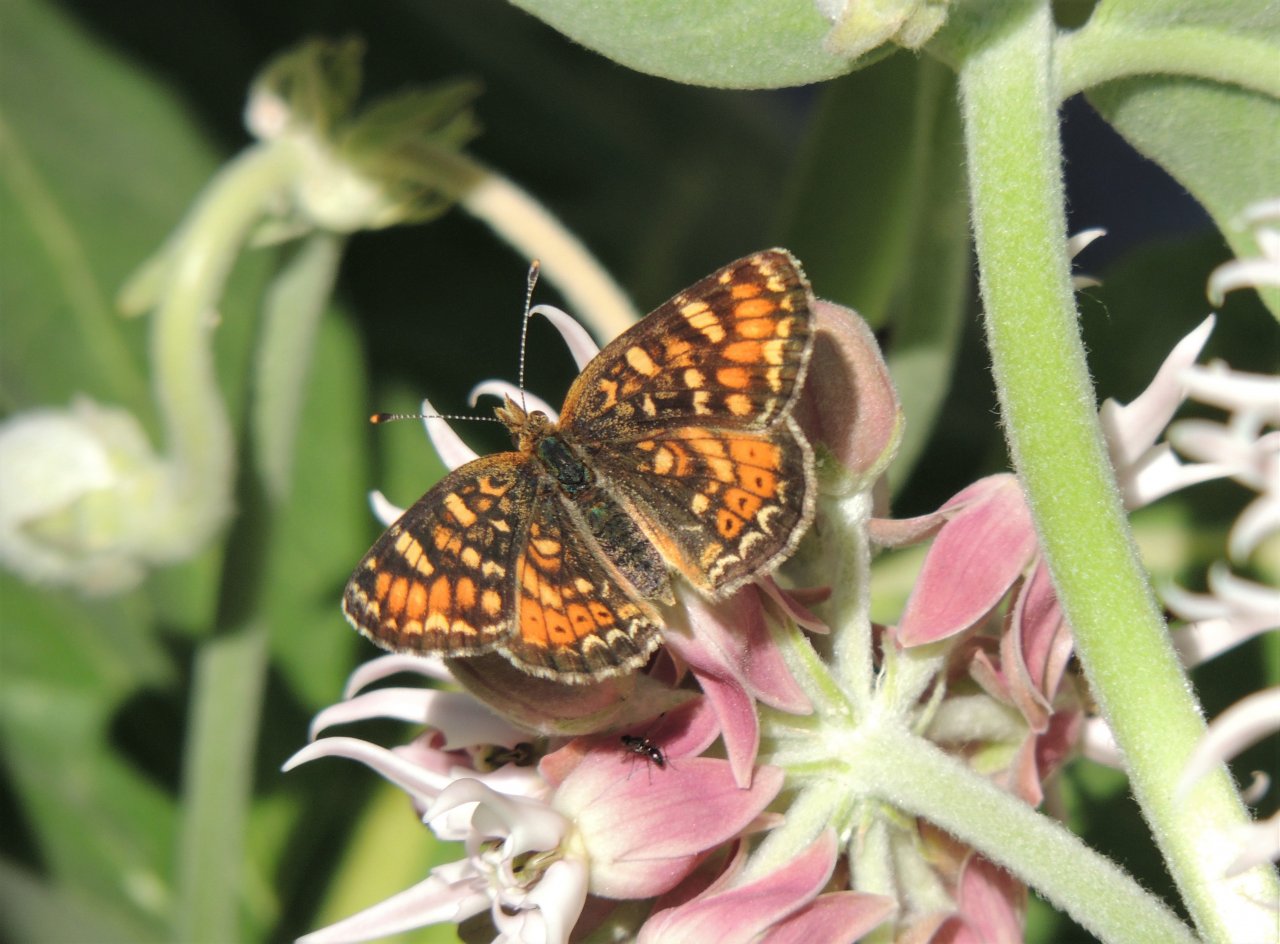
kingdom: Animalia
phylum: Arthropoda
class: Insecta
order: Lepidoptera
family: Nymphalidae
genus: Phyciodes
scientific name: Phyciodes tharos
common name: Field Crescent
